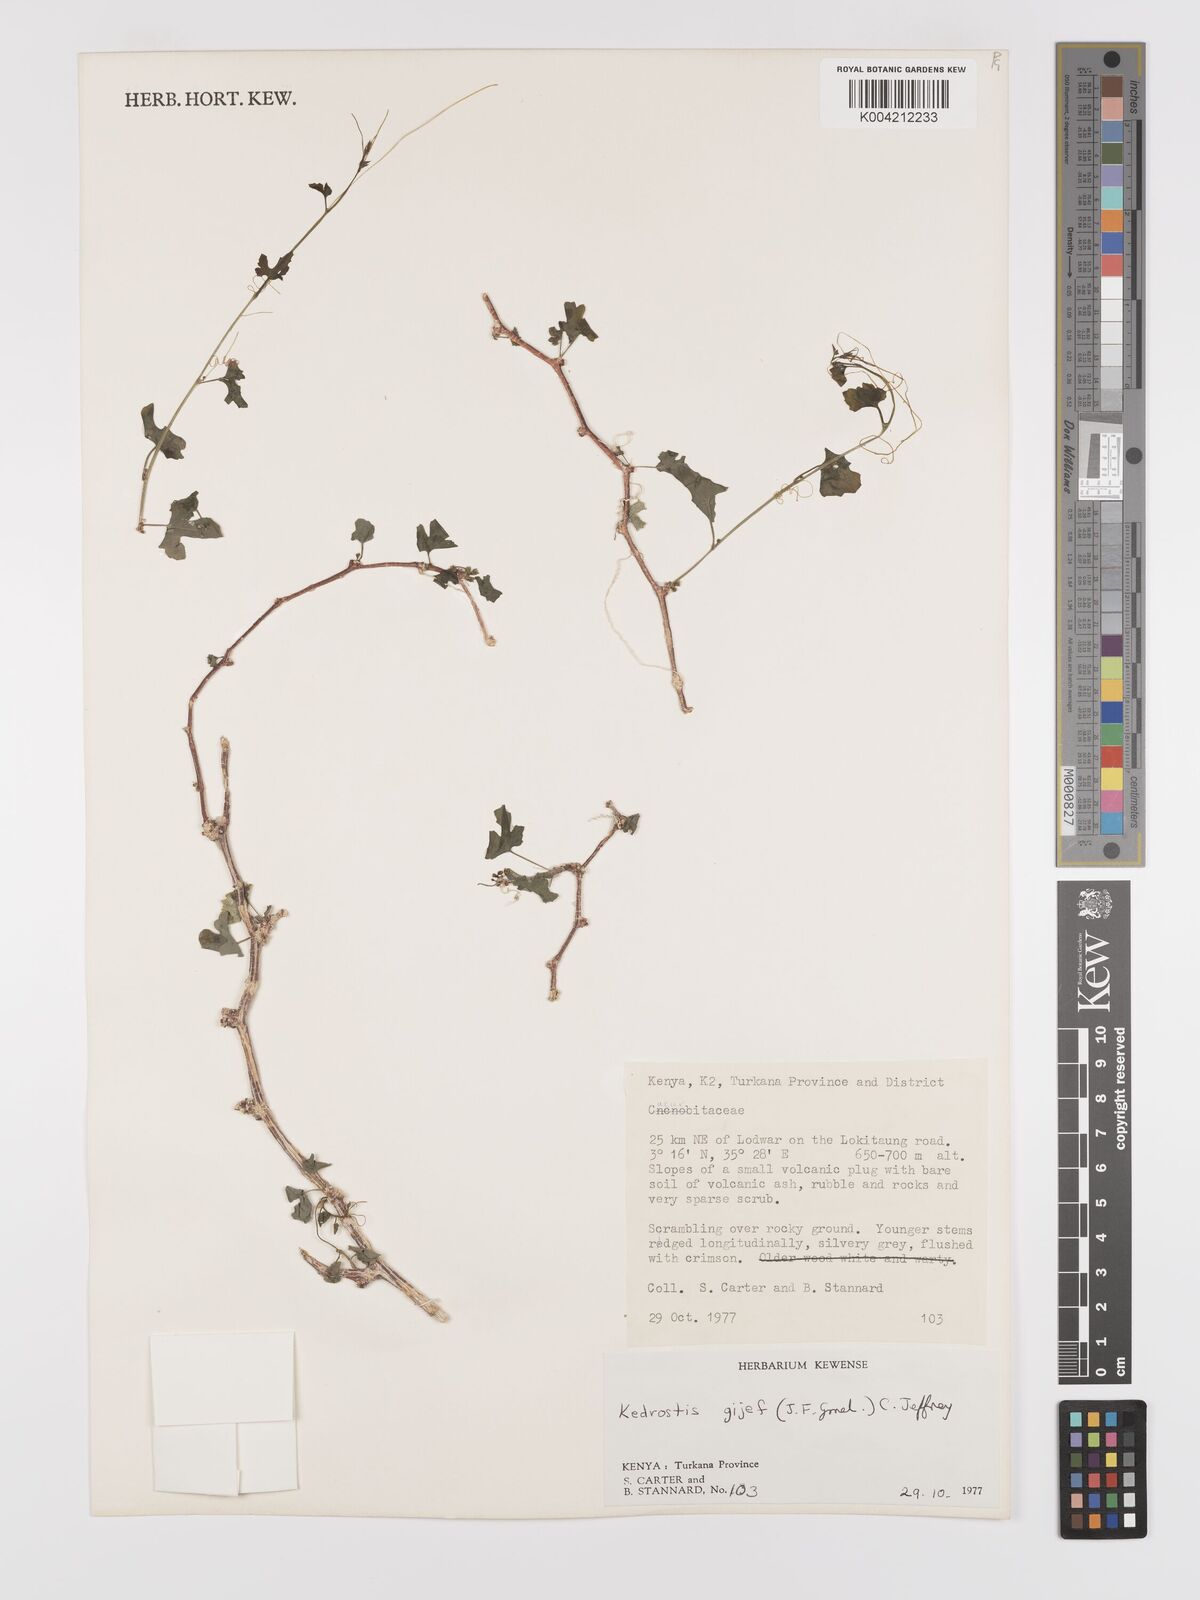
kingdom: Plantae
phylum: Tracheophyta
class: Magnoliopsida
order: Cucurbitales
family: Cucurbitaceae
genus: Kedrostis
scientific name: Kedrostis gijef
